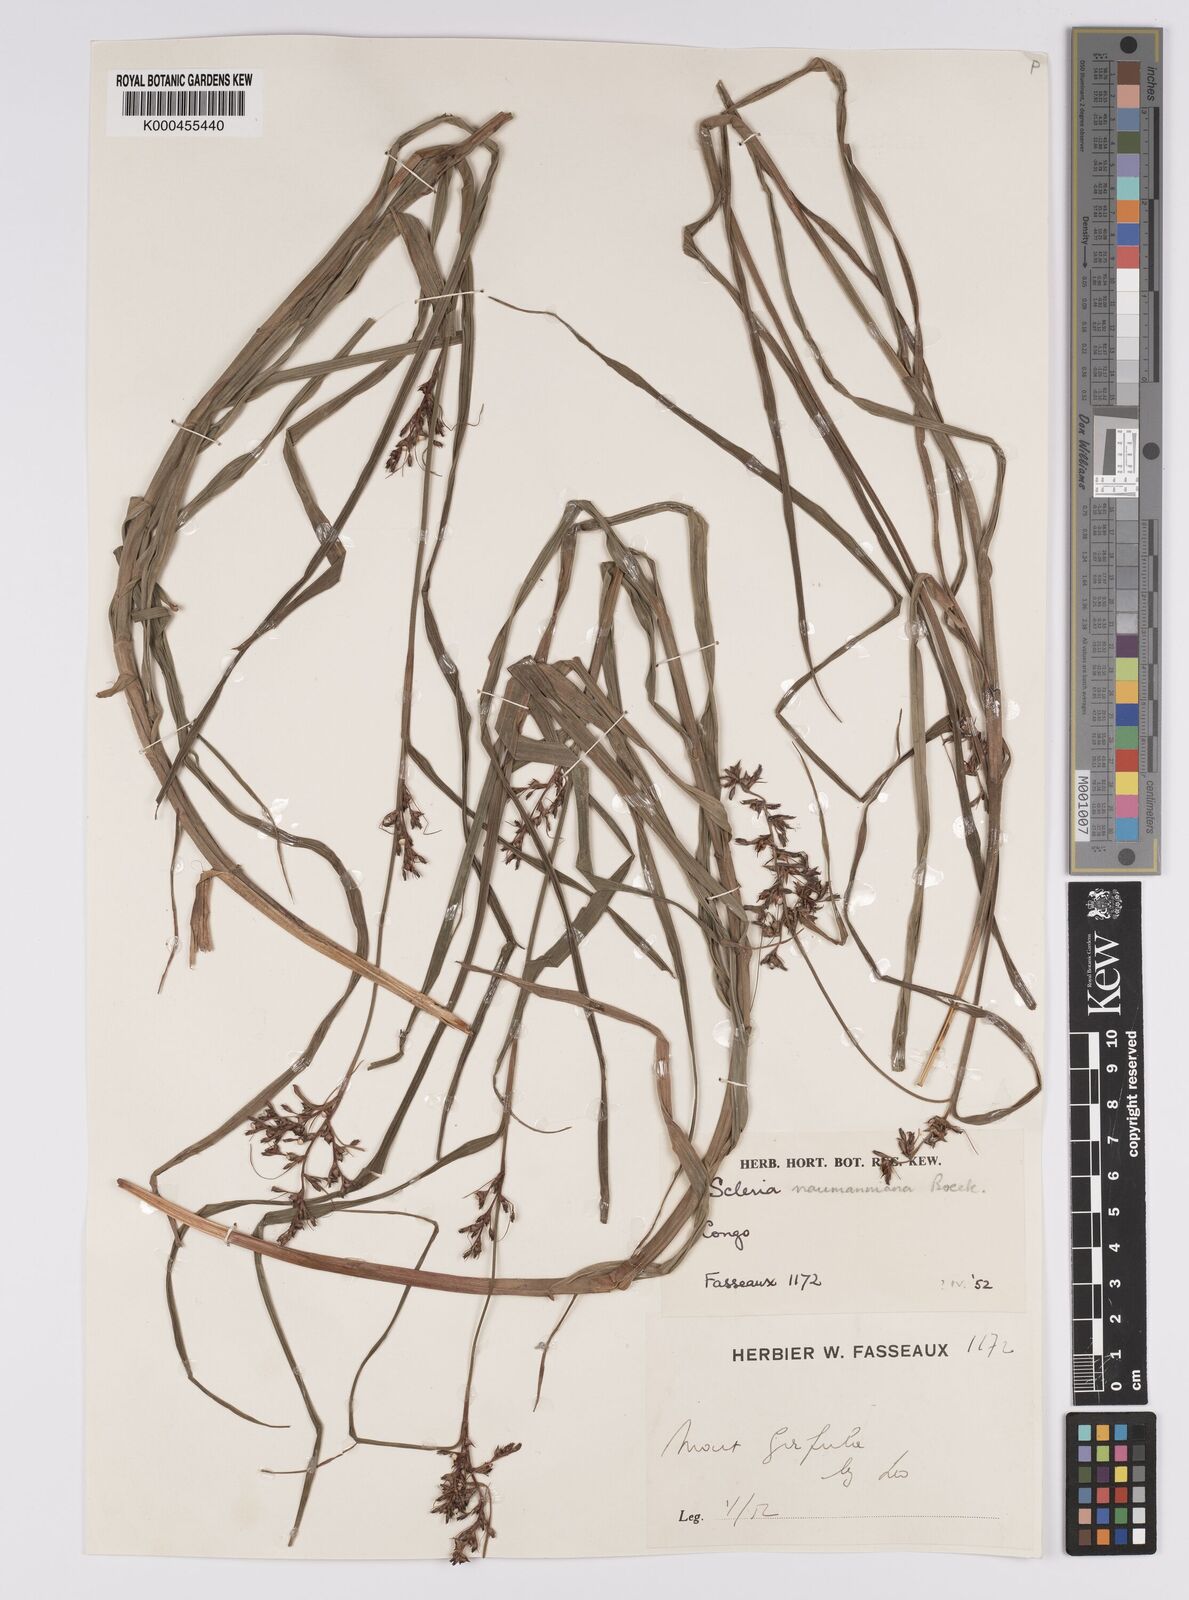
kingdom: Plantae
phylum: Tracheophyta
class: Liliopsida
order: Poales
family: Cyperaceae
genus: Scleria
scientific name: Scleria iostephana
